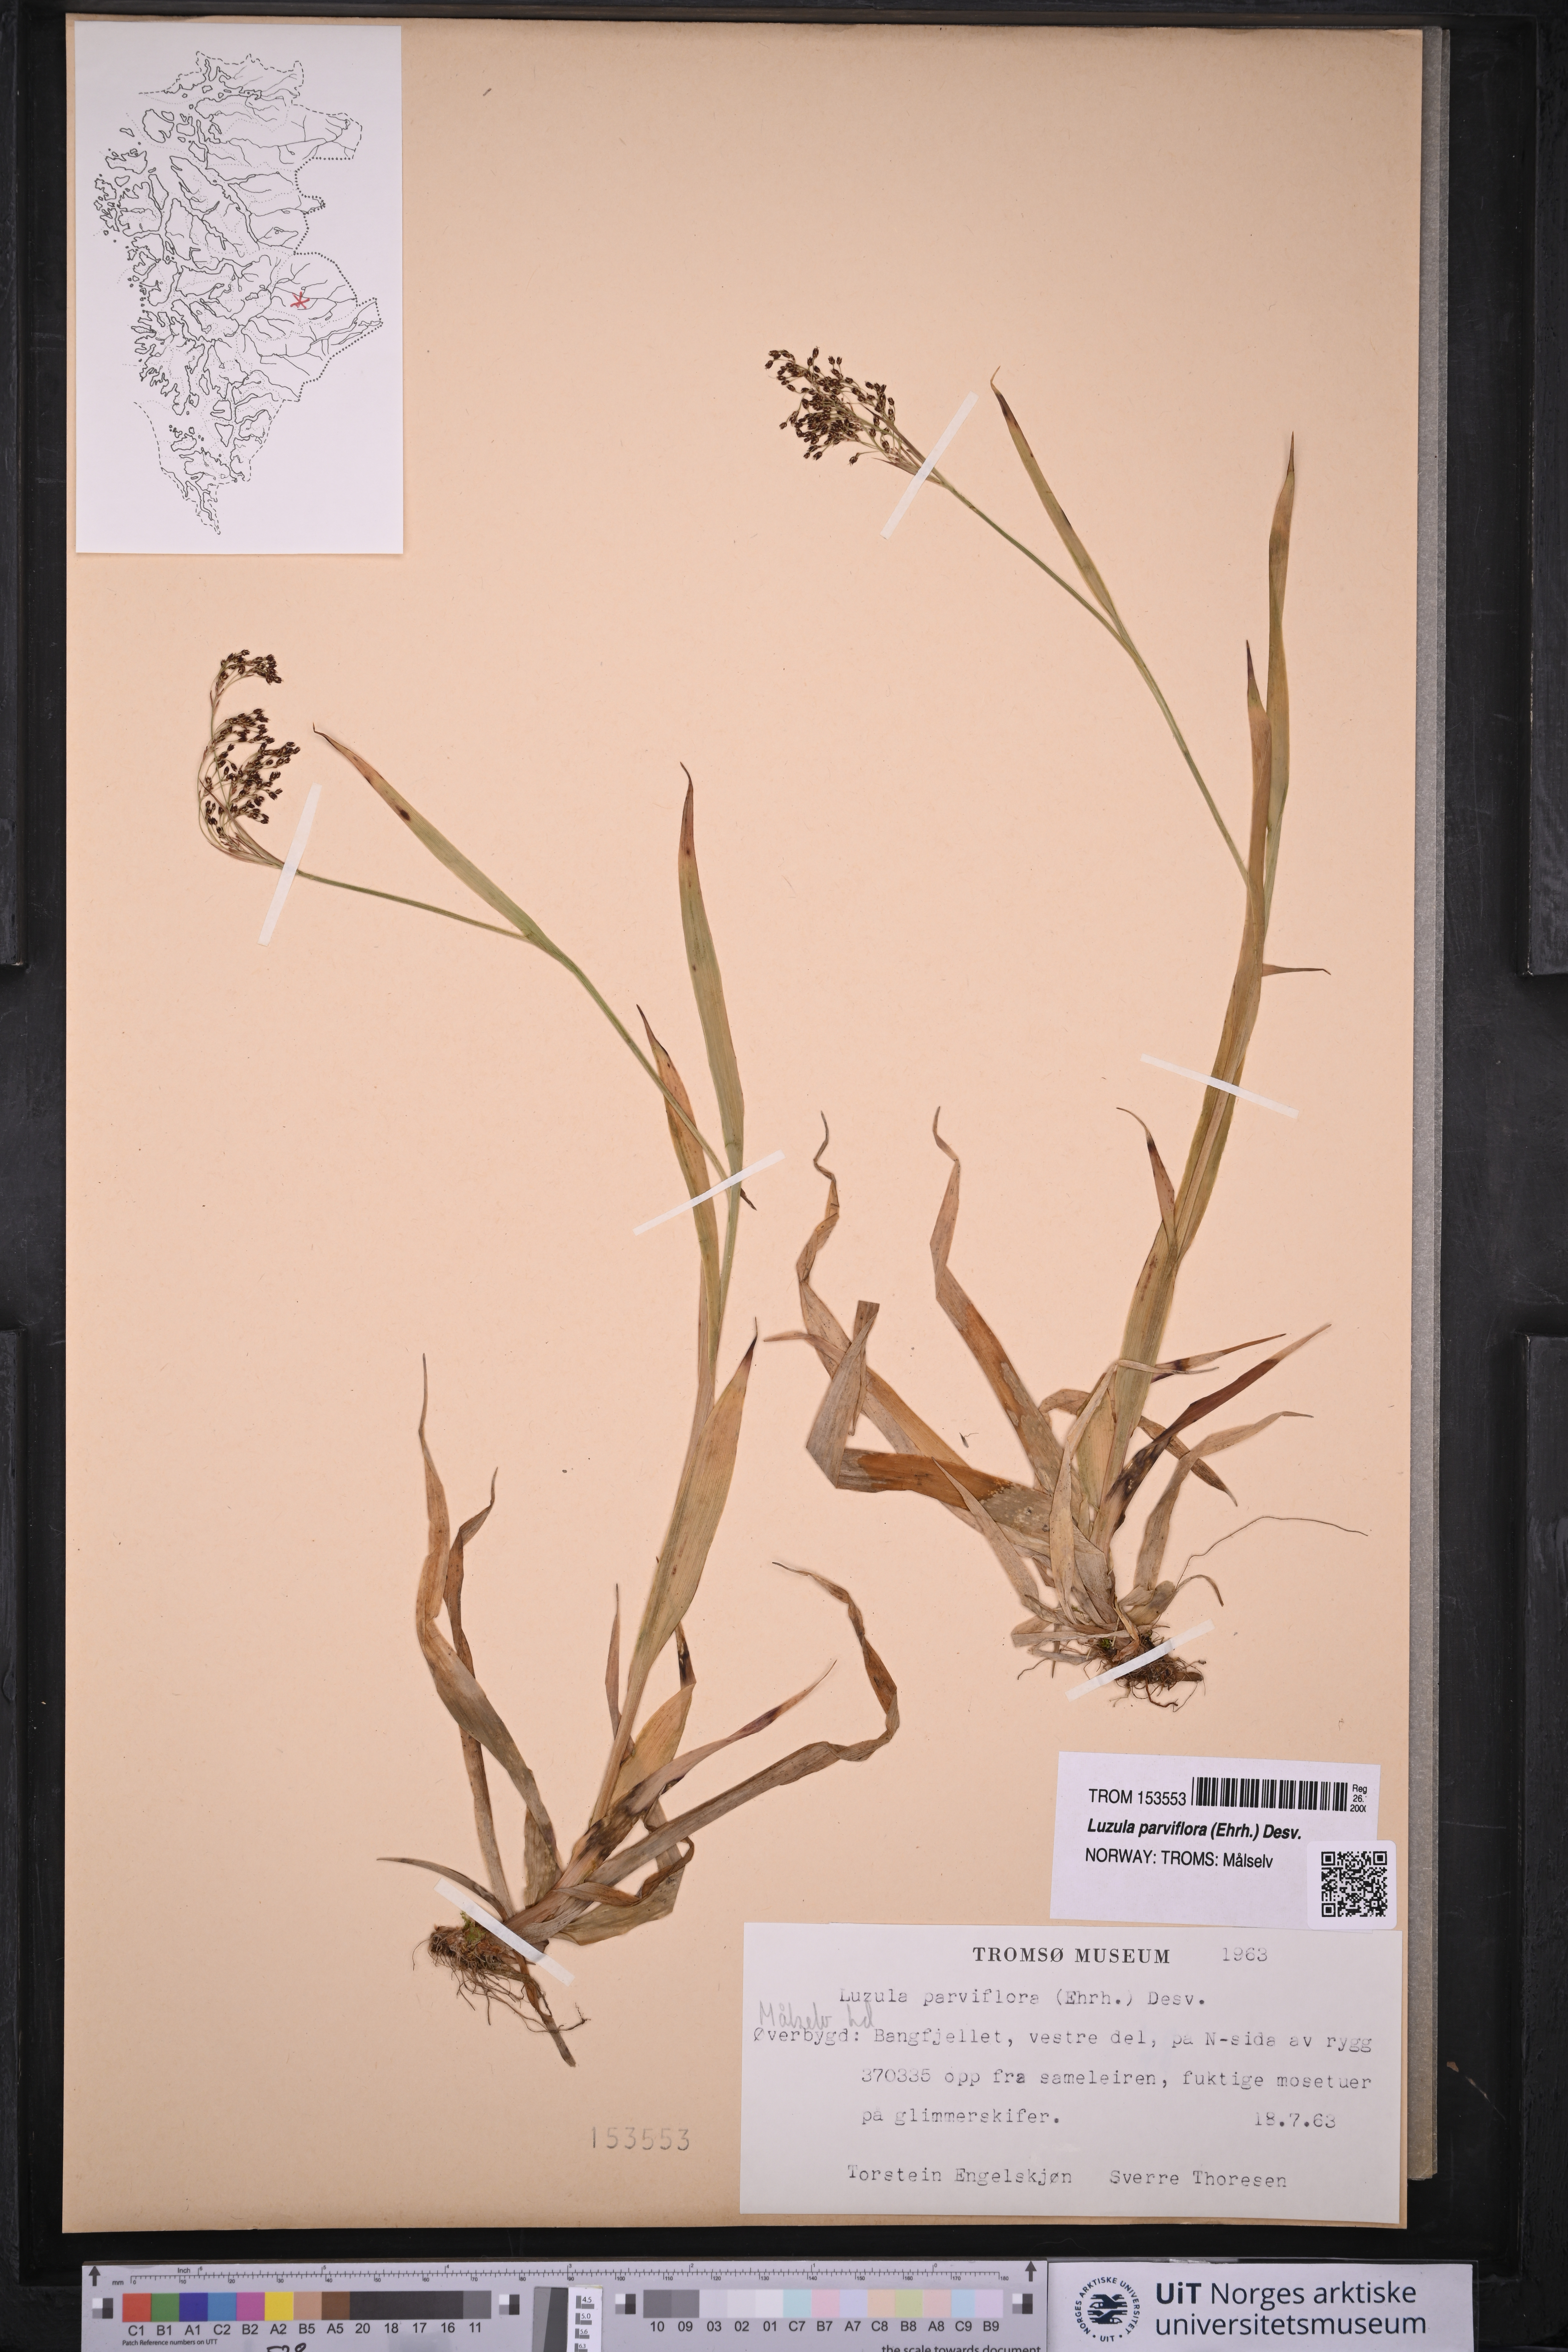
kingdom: Plantae
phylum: Tracheophyta
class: Liliopsida
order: Poales
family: Juncaceae
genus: Luzula
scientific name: Luzula parviflora
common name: Millet woodrush
